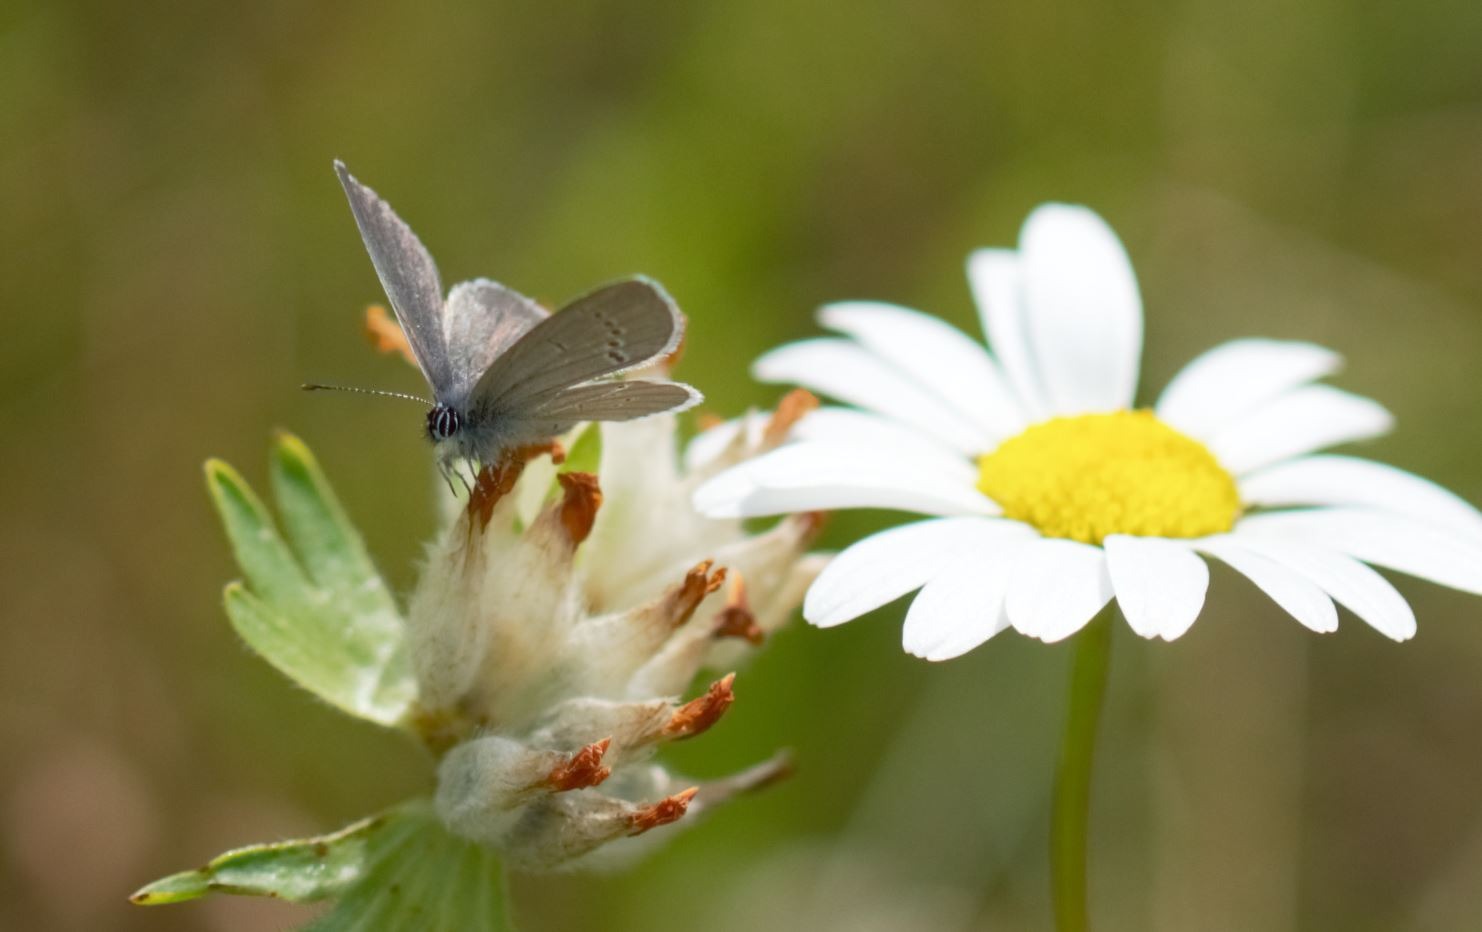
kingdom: Animalia
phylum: Arthropoda
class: Insecta
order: Lepidoptera
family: Lycaenidae
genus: Cupido
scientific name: Cupido minimus
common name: Dværgblåfugl
